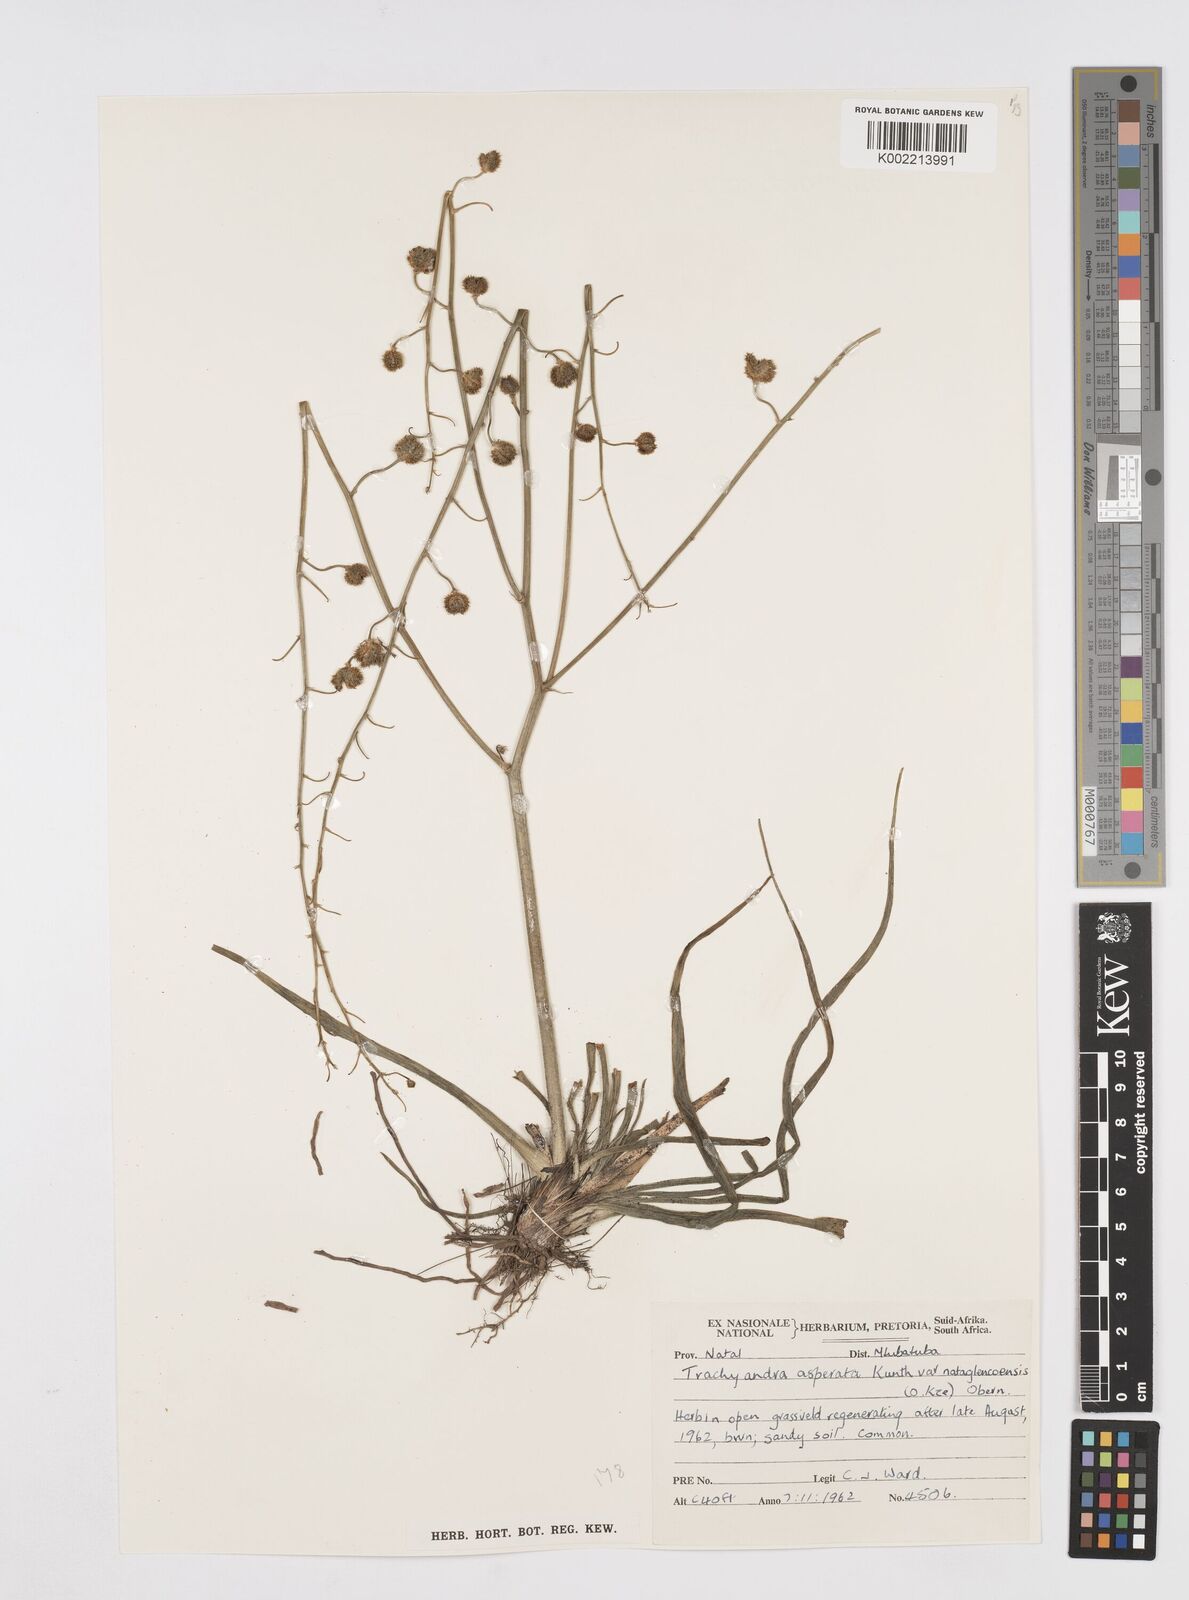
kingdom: Plantae
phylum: Tracheophyta
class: Liliopsida
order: Asparagales
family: Asphodelaceae
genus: Trachyandra
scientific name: Trachyandra asperata
